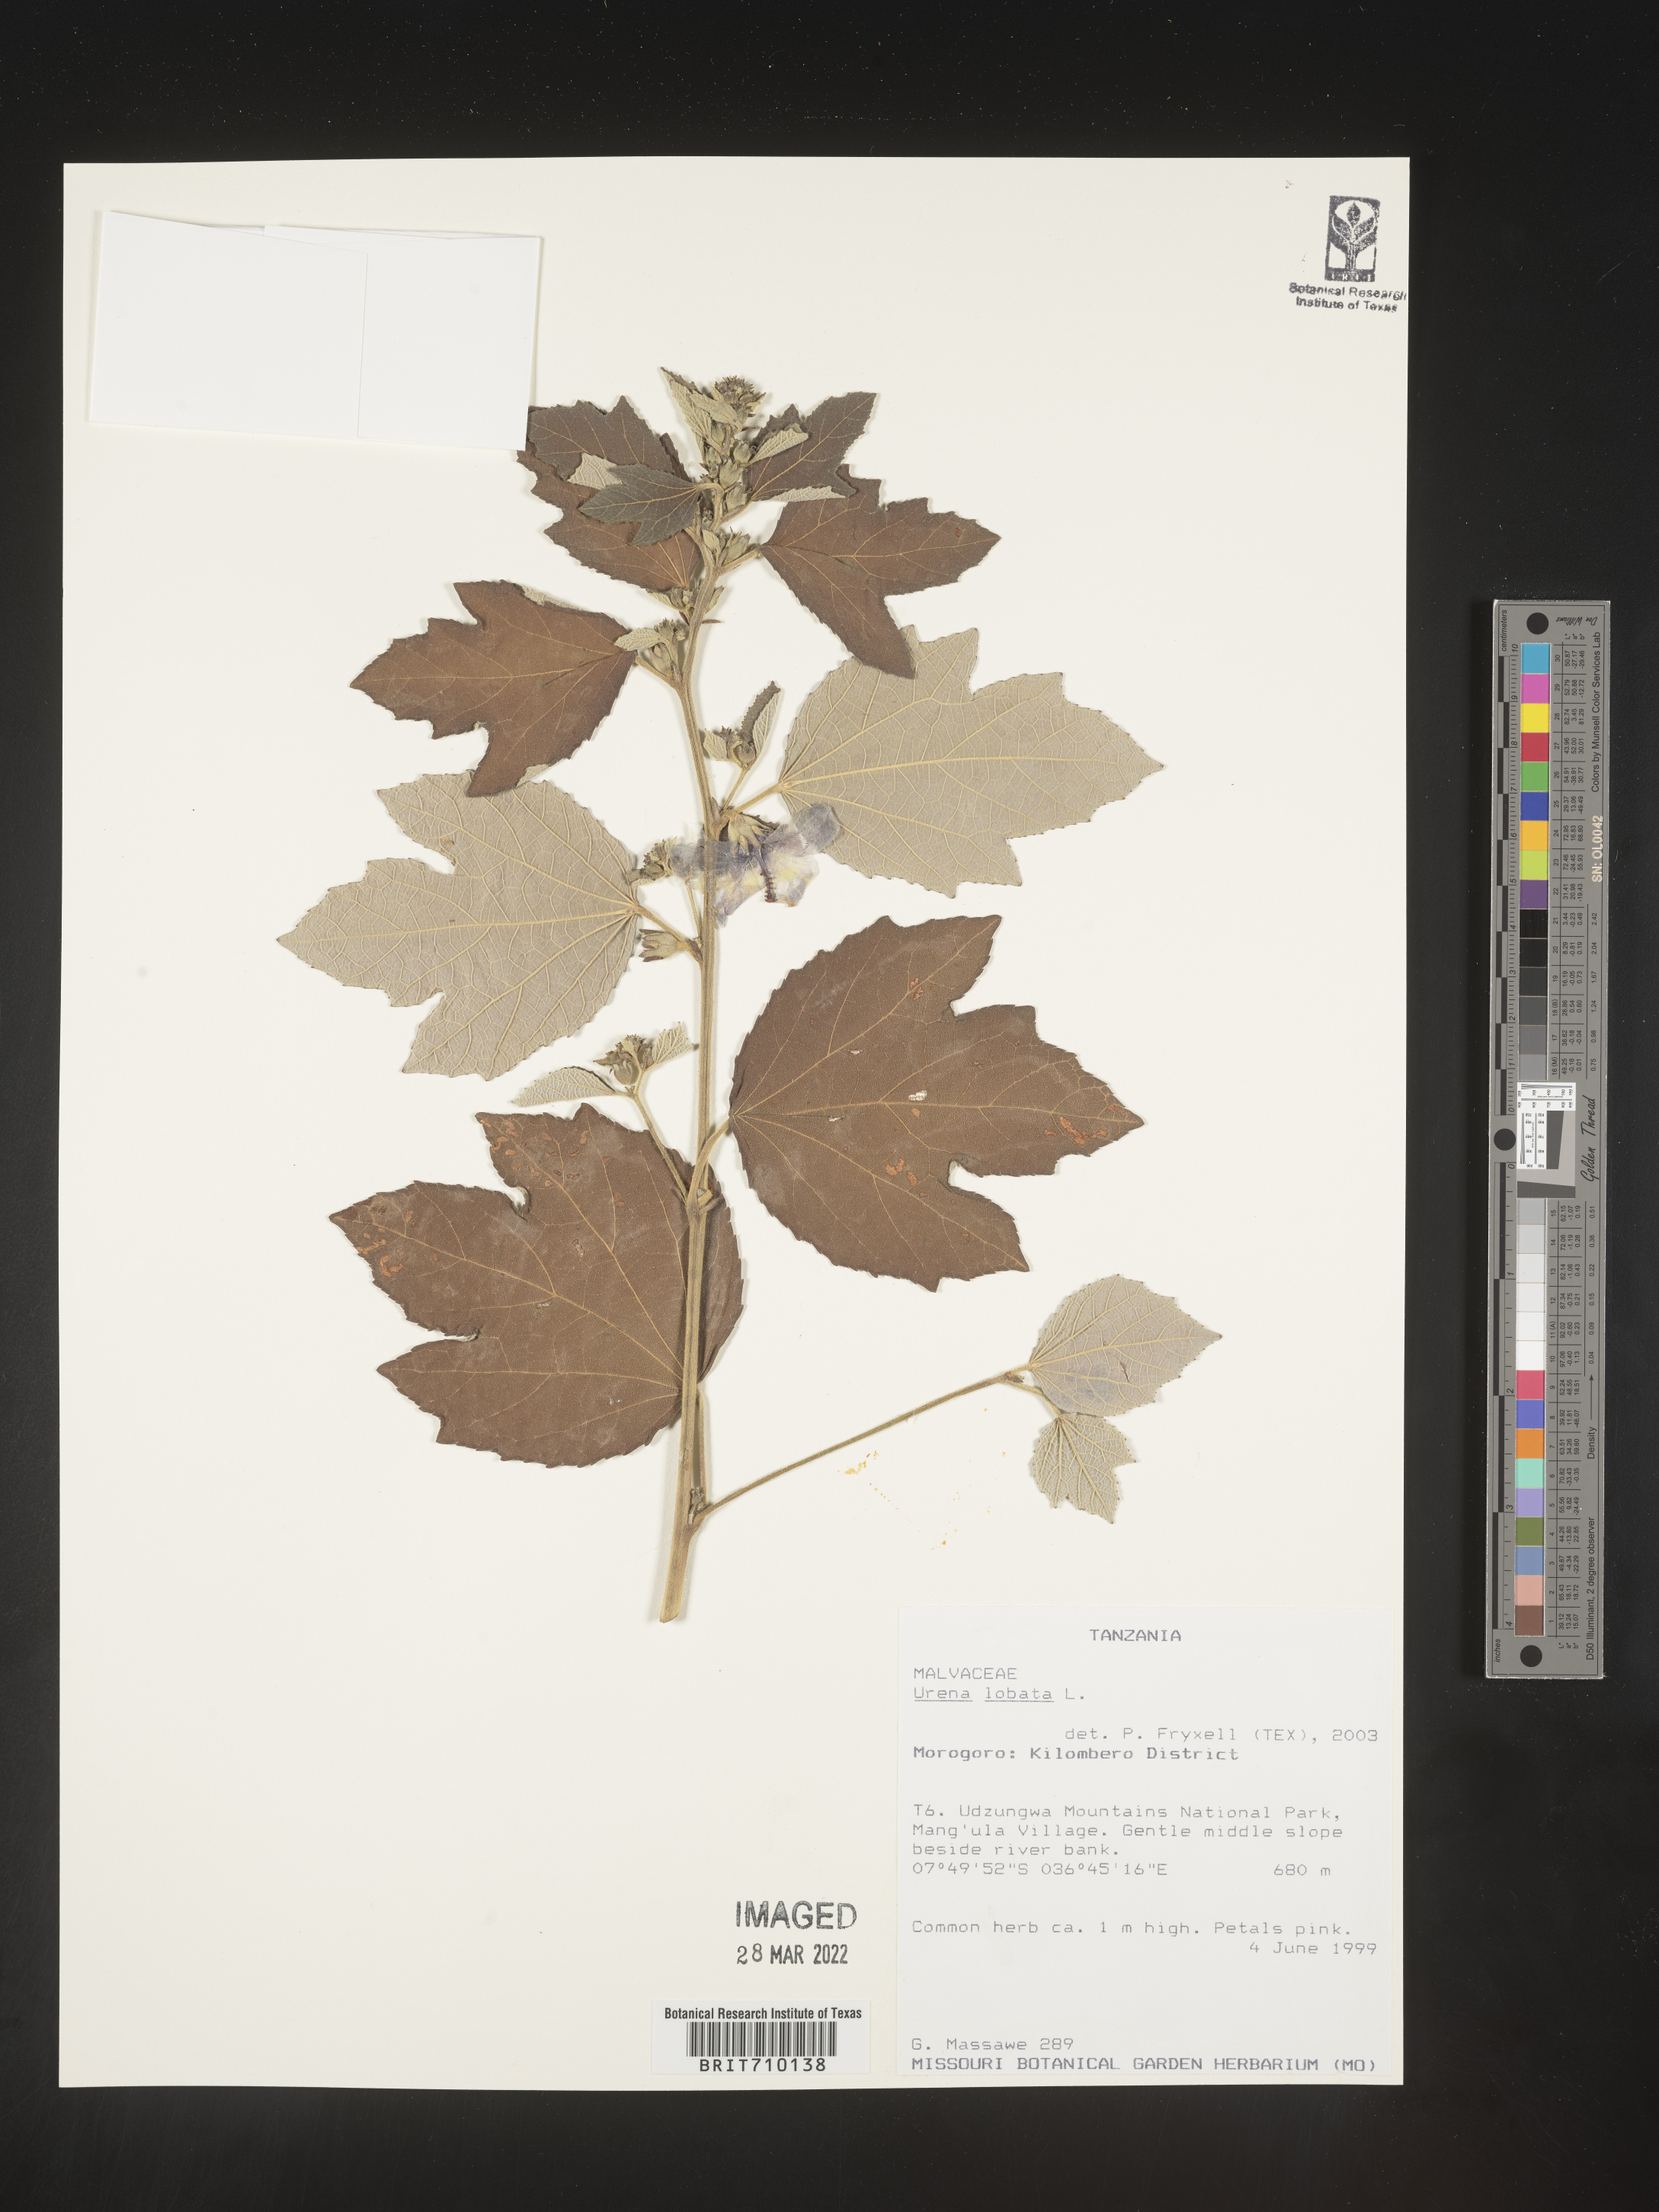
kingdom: Plantae
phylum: Tracheophyta
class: Magnoliopsida
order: Malvales
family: Malvaceae
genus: Urena
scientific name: Urena
